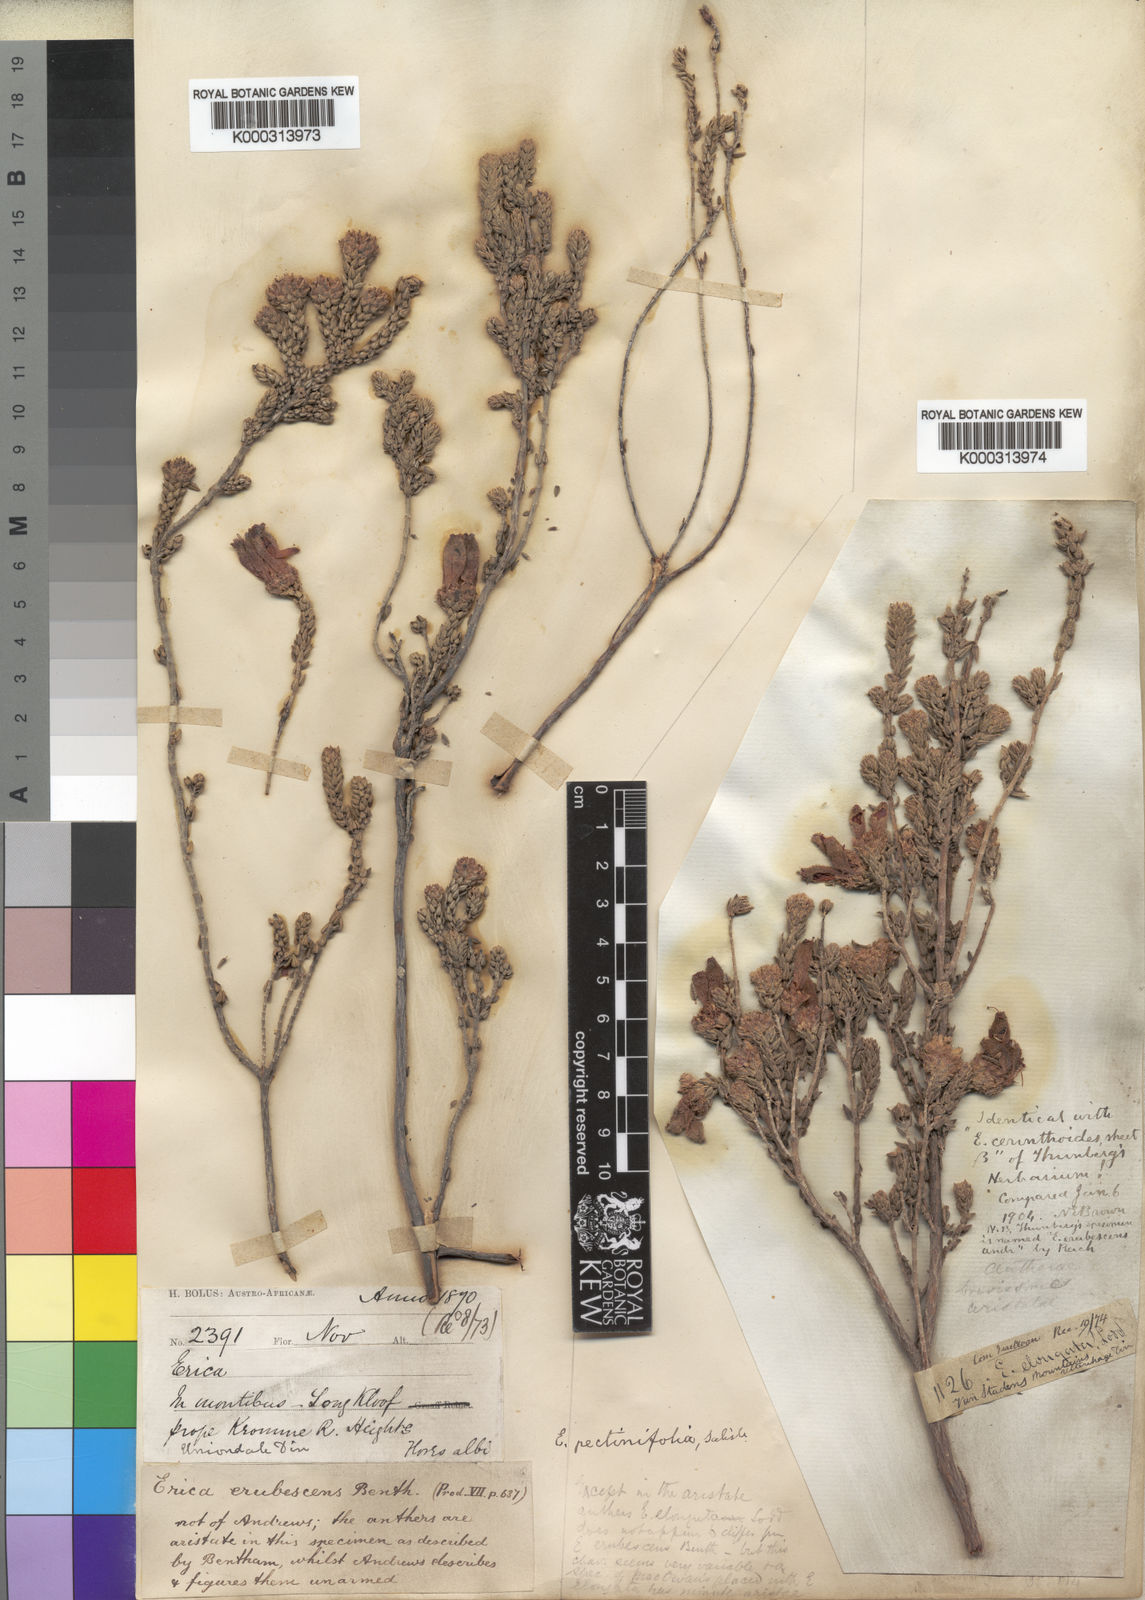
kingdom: Plantae
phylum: Tracheophyta
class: Magnoliopsida
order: Ericales
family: Ericaceae
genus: Erica
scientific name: Erica pectinifolia
